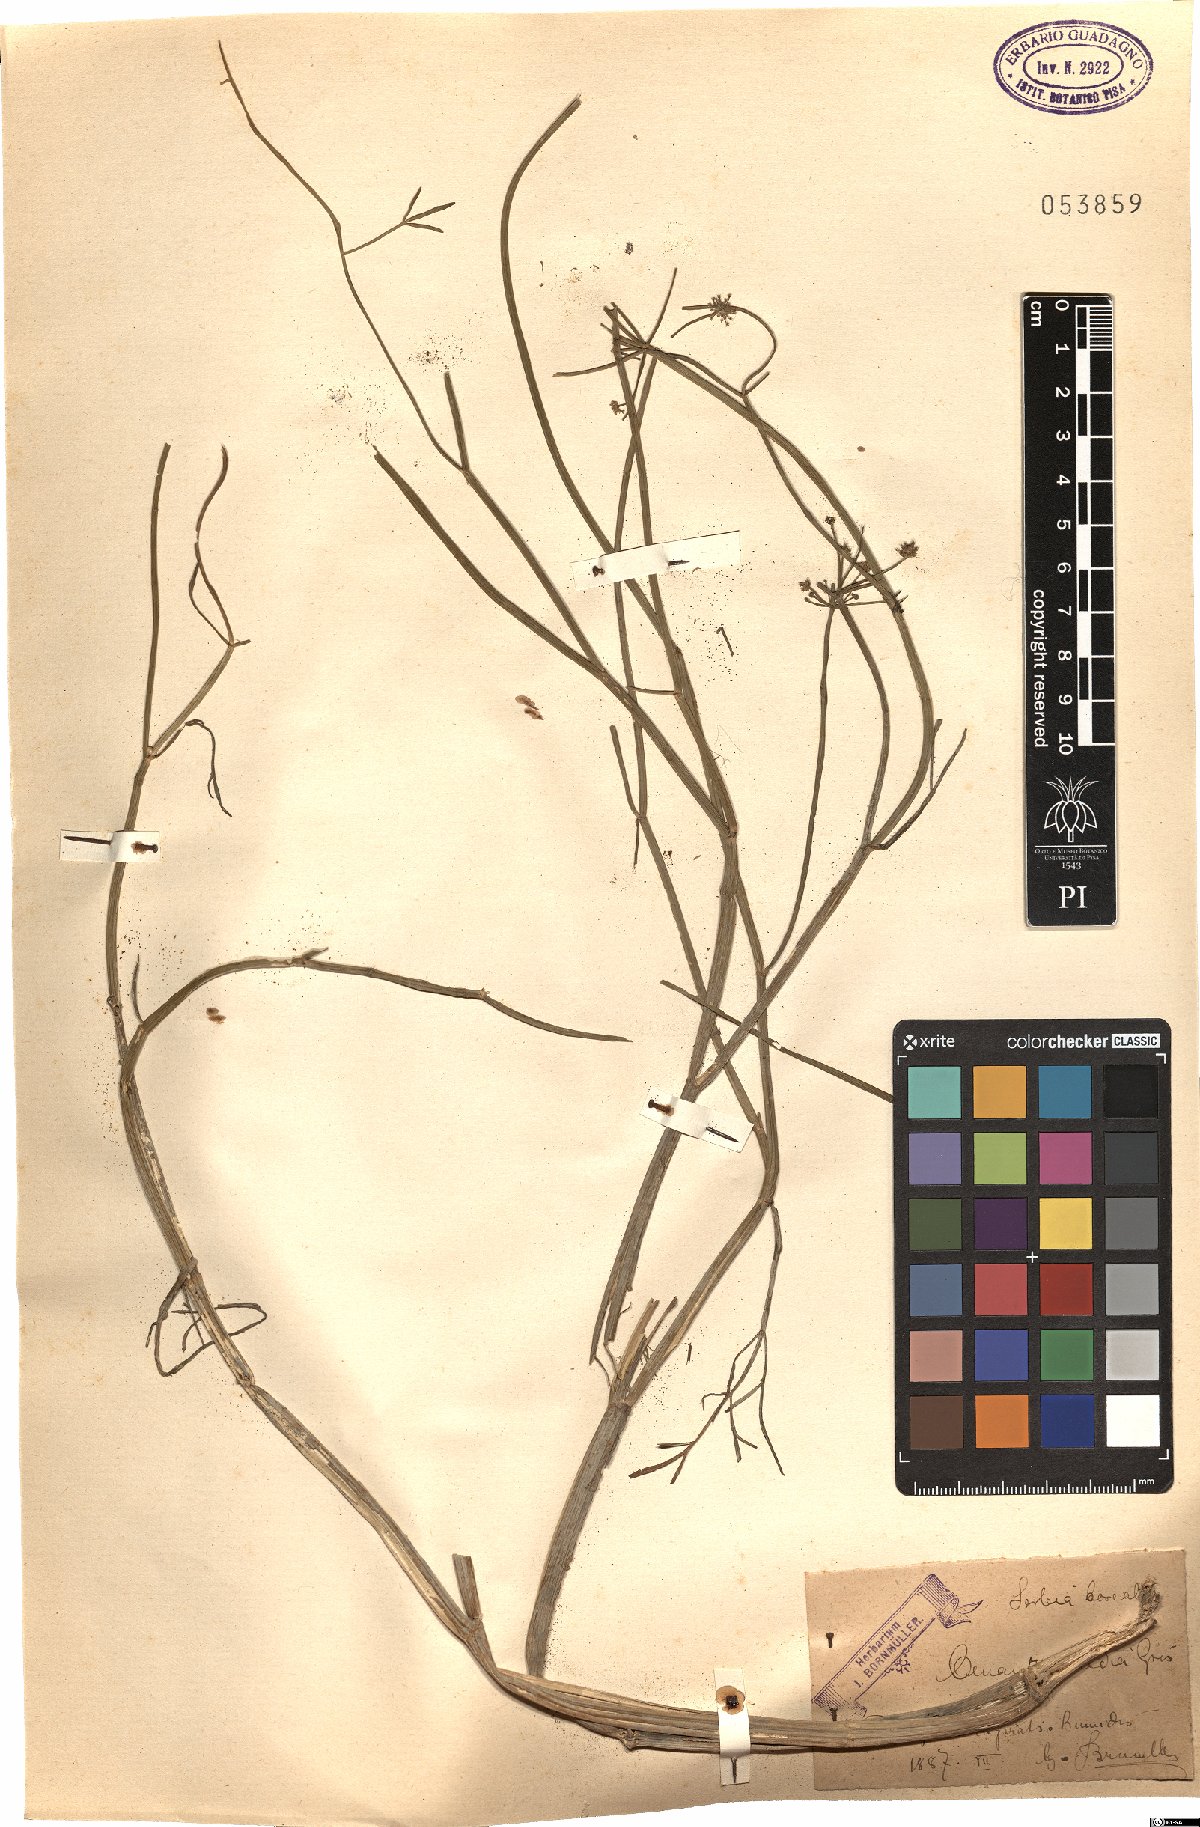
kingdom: Plantae
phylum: Tracheophyta
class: Magnoliopsida
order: Apiales
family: Apiaceae
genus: Oenanthe
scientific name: Oenanthe silaifolia
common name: Narrow-leaved water-dropwort
